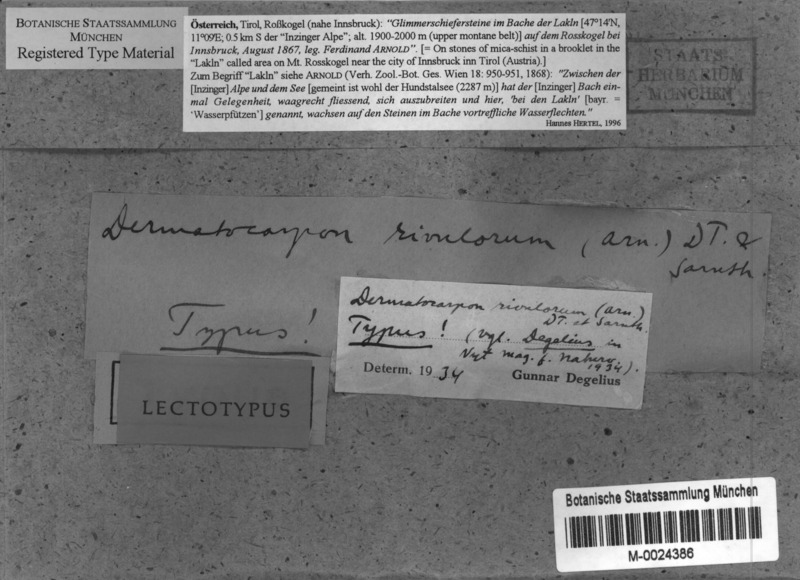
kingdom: Fungi
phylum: Ascomycota
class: Eurotiomycetes
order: Verrucariales
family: Verrucariaceae
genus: Dermatocarpon
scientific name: Dermatocarpon rivulorum
